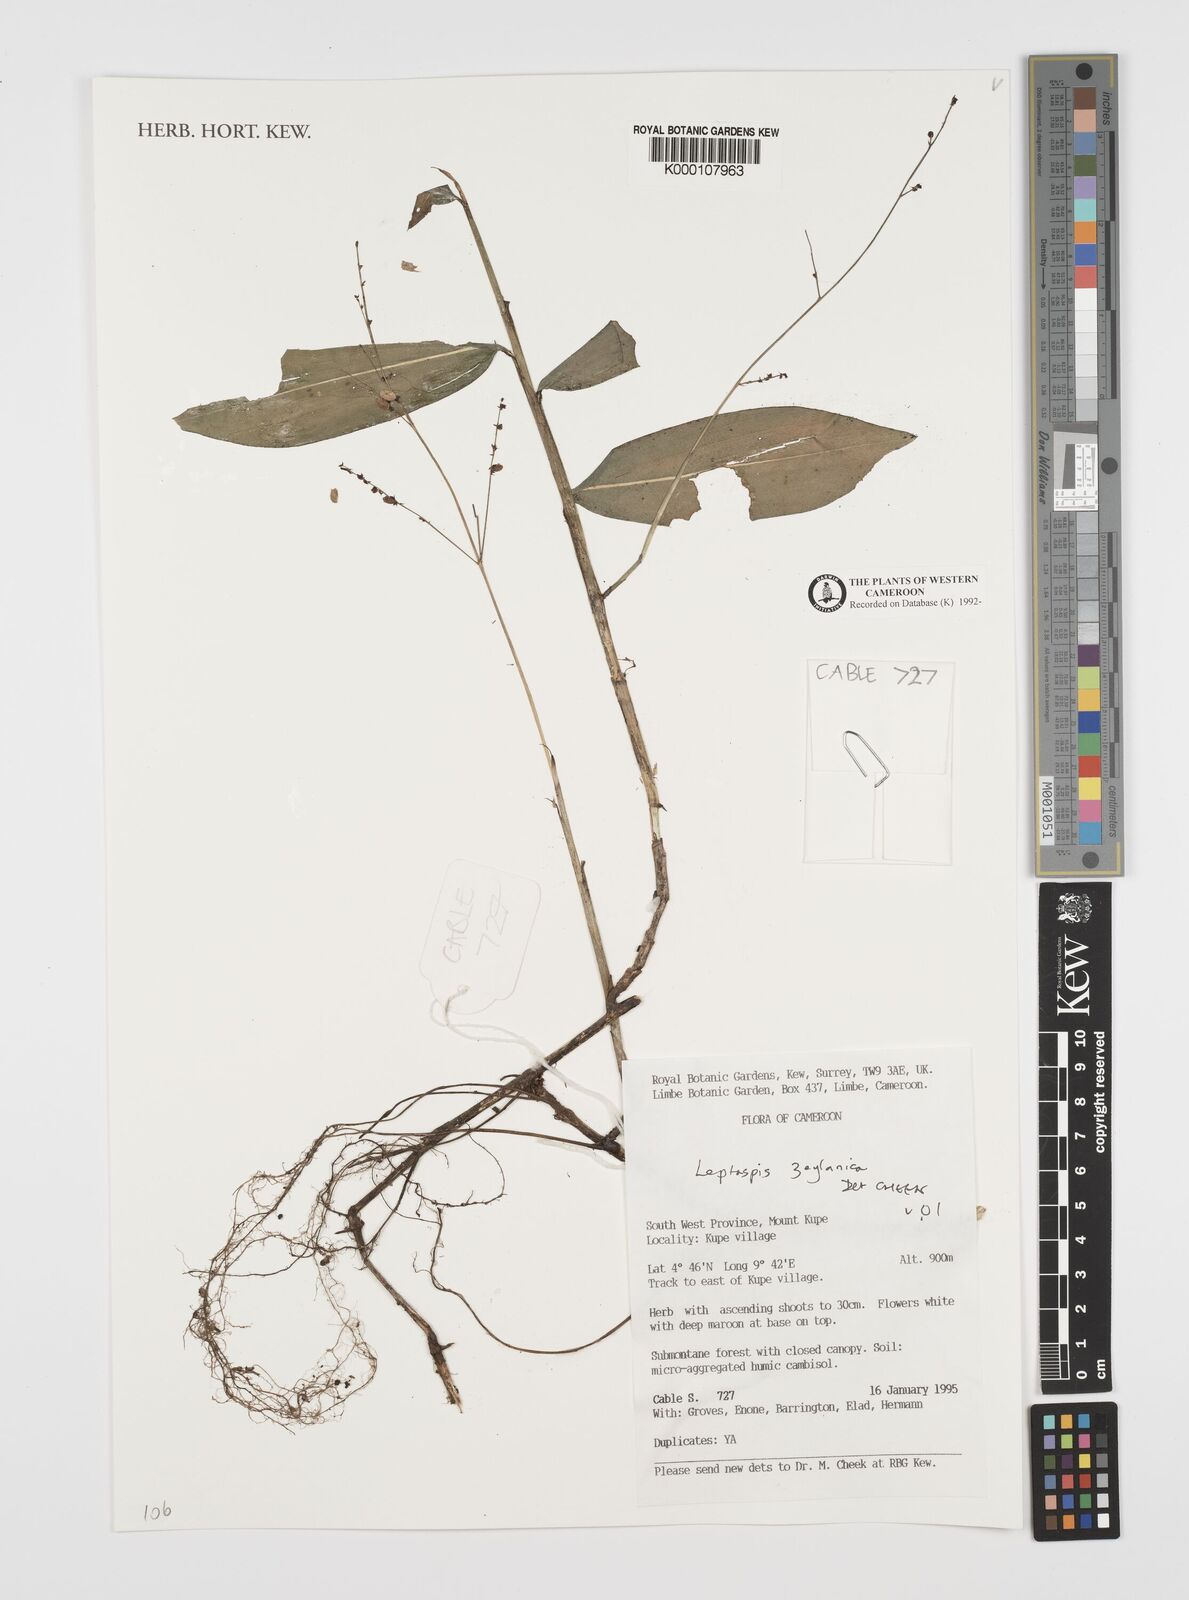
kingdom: Plantae
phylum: Tracheophyta
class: Liliopsida
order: Poales
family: Poaceae
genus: Leptaspis
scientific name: Leptaspis zeylanica
